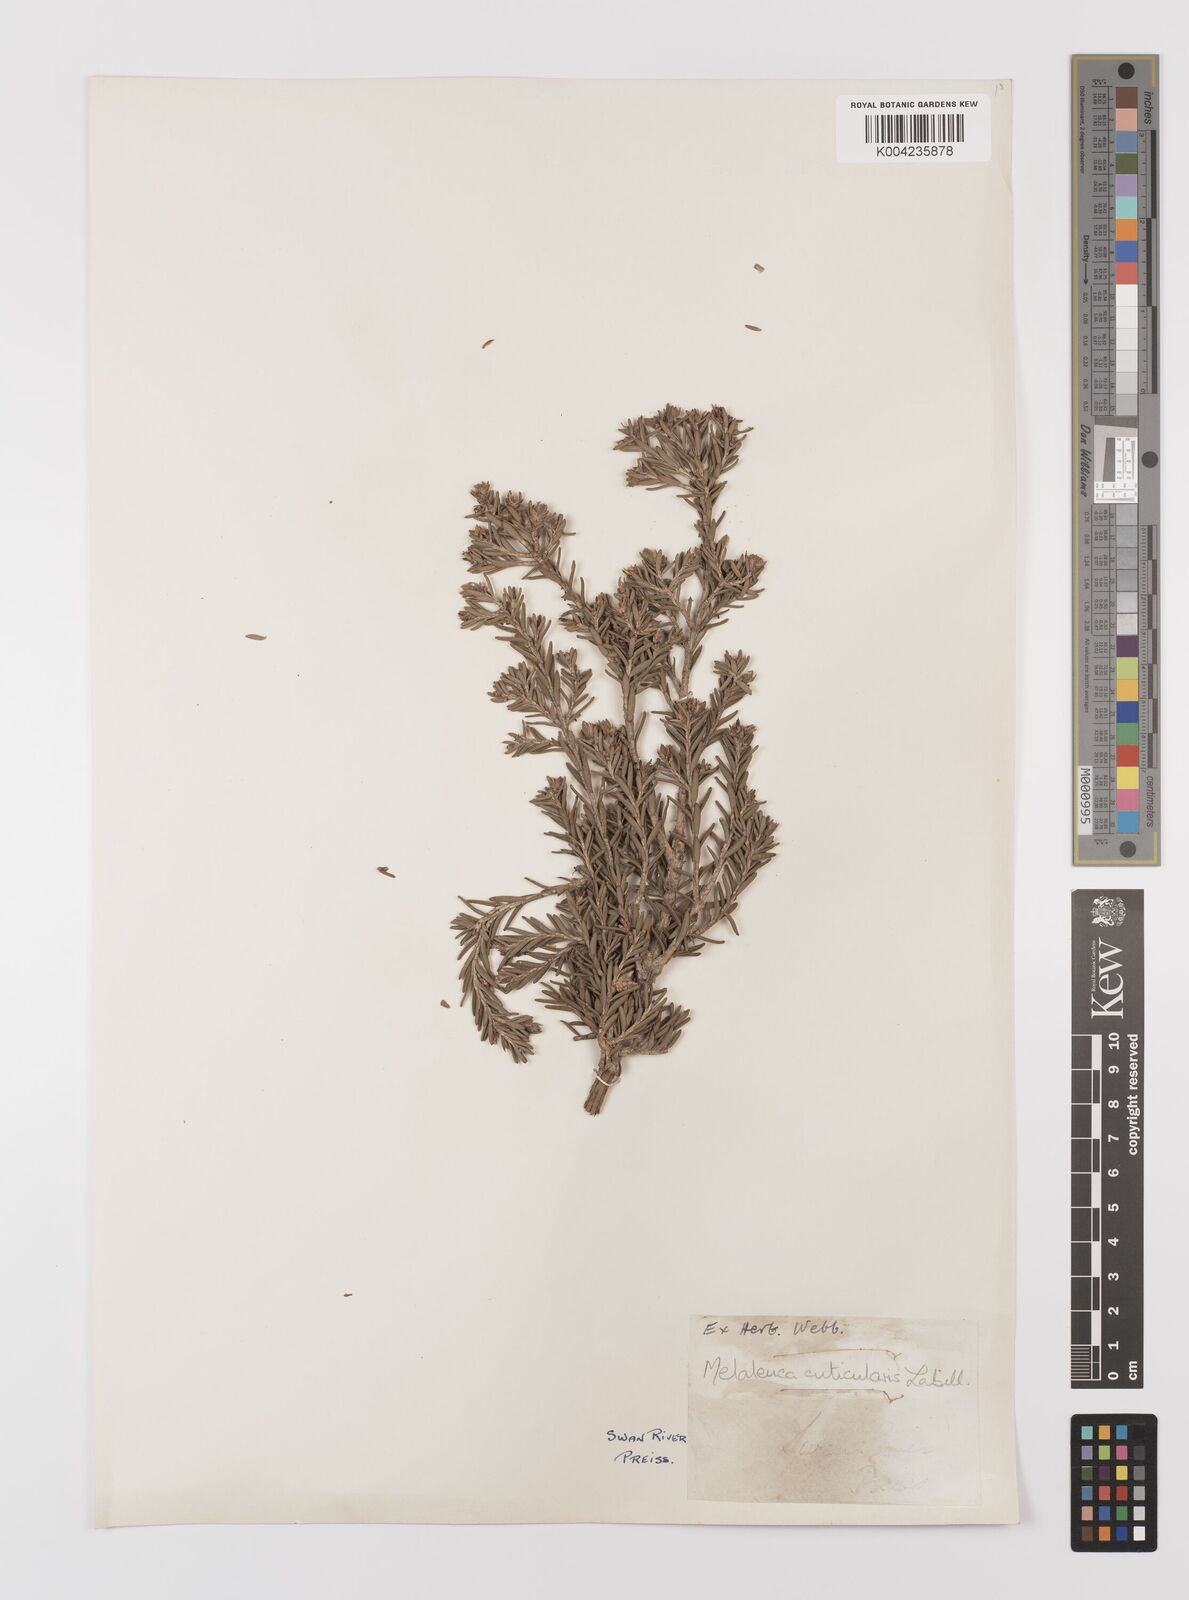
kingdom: Plantae
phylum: Tracheophyta
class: Magnoliopsida
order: Myrtales
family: Myrtaceae
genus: Melaleuca
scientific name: Melaleuca cuticularis
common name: Saltwater paperbark
